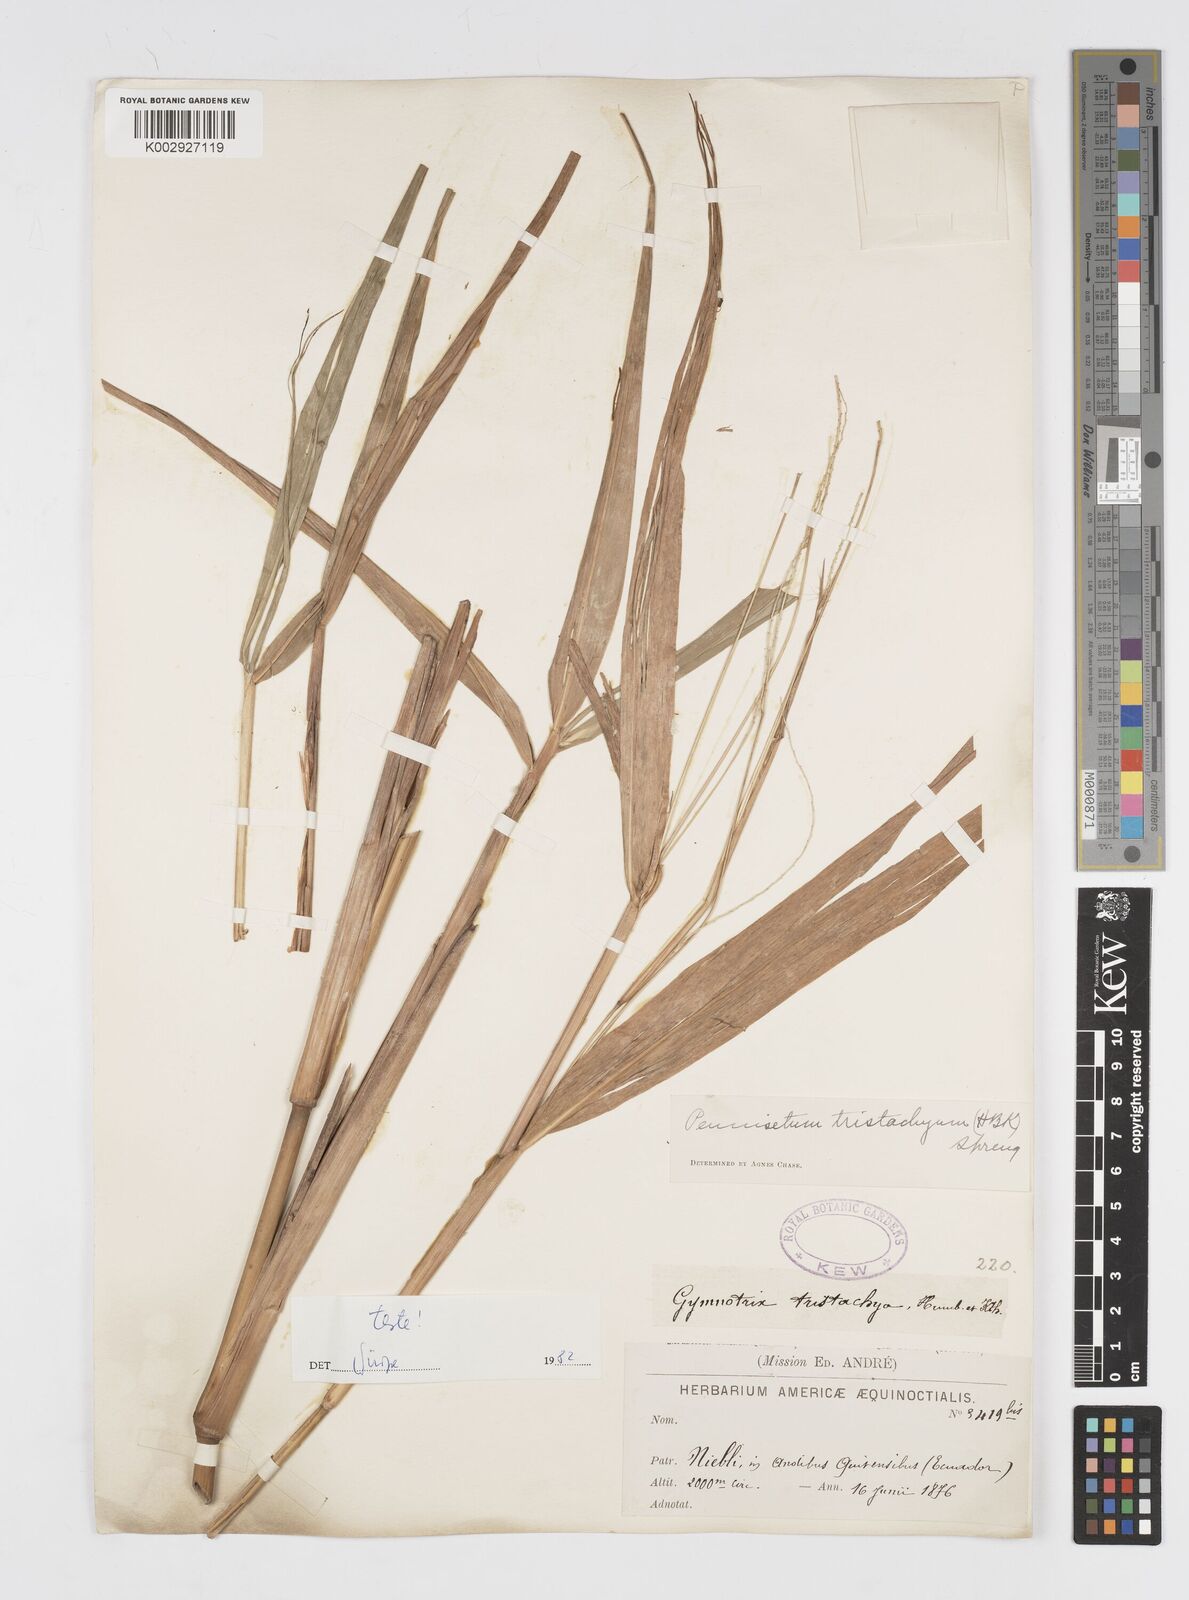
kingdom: Plantae
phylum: Tracheophyta
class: Liliopsida
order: Poales
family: Poaceae
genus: Cenchrus
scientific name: Cenchrus tristachyus
